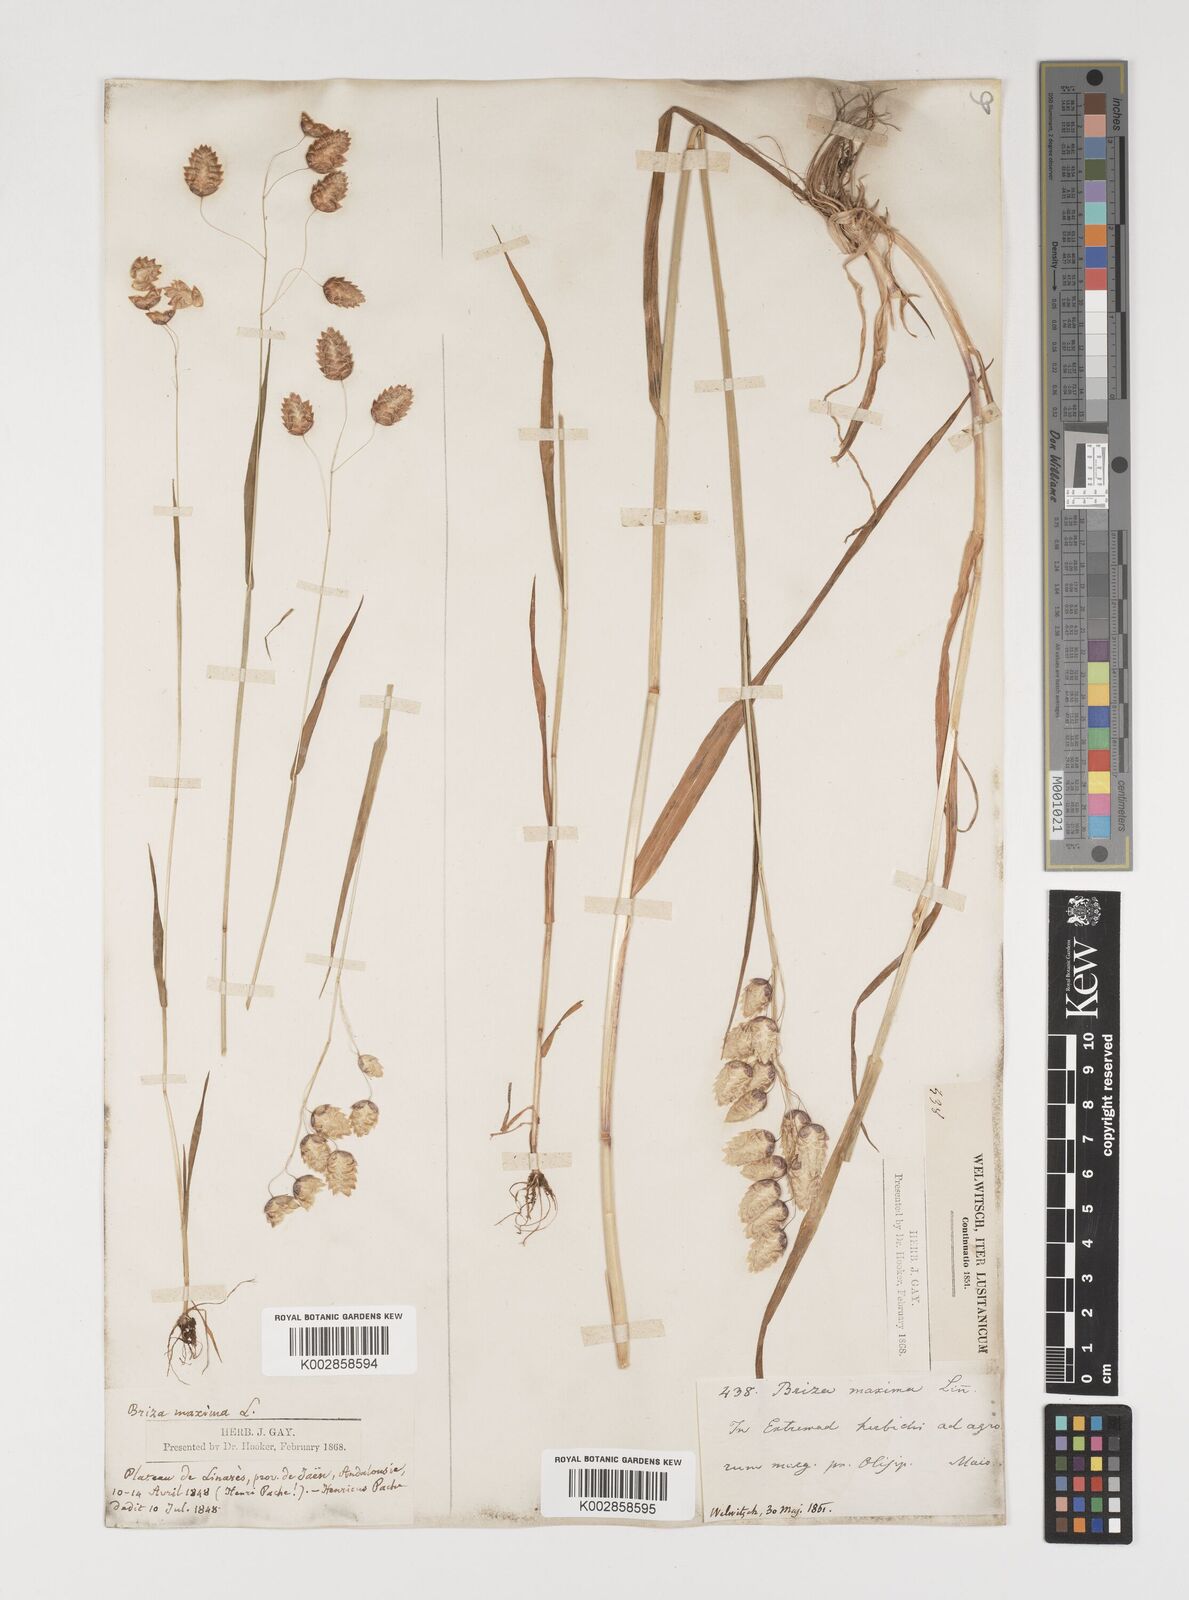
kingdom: Plantae
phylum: Tracheophyta
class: Liliopsida
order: Poales
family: Poaceae
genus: Briza
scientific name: Briza maxima
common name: Big quakinggrass
